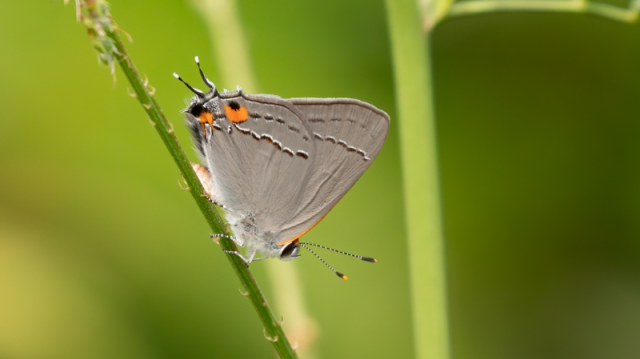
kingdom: Animalia
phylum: Arthropoda
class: Insecta
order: Lepidoptera
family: Lycaenidae
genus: Strymon
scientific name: Strymon melinus
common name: Gray Hairstreak
